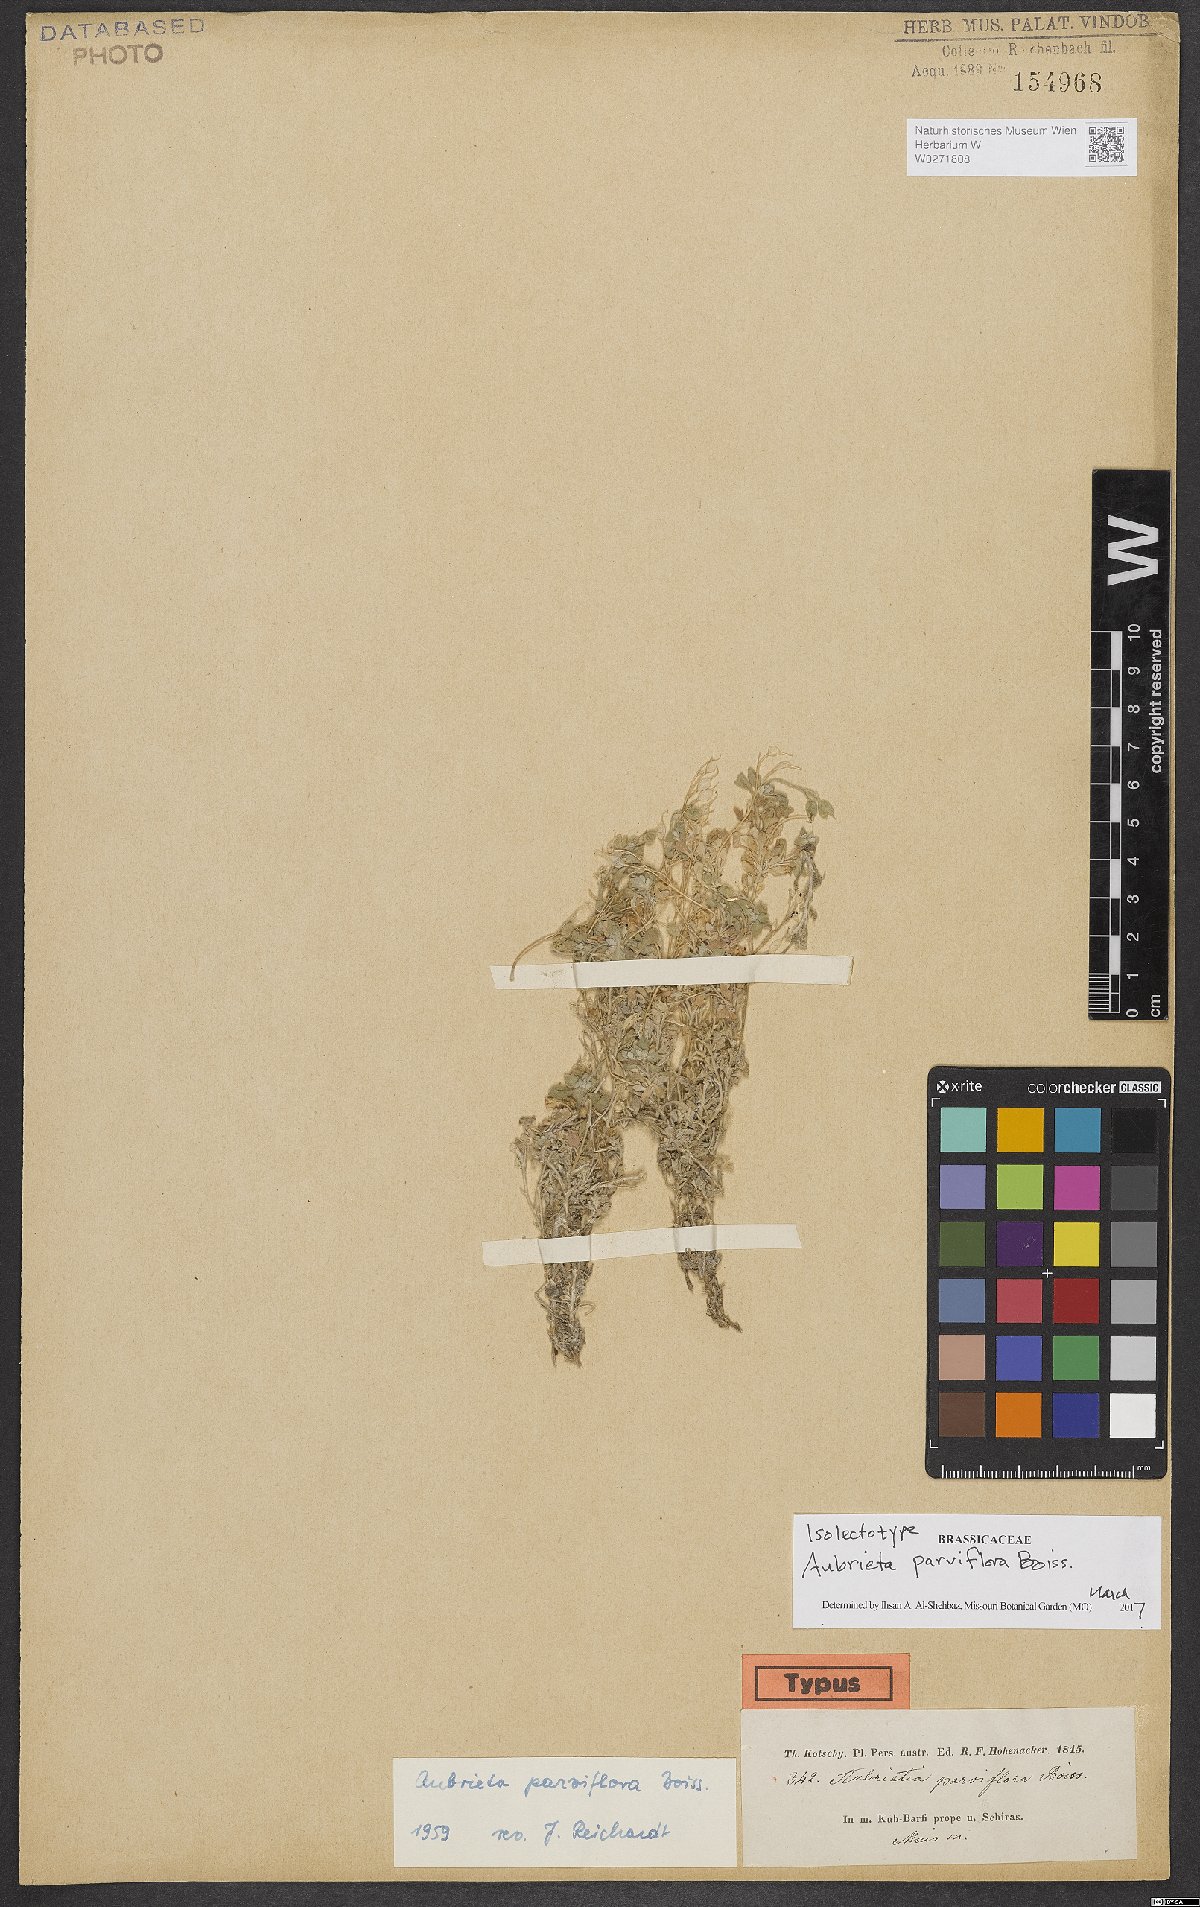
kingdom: Plantae
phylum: Tracheophyta
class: Magnoliopsida
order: Brassicales
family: Brassicaceae
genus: Aubrieta
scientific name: Aubrieta parviflora
